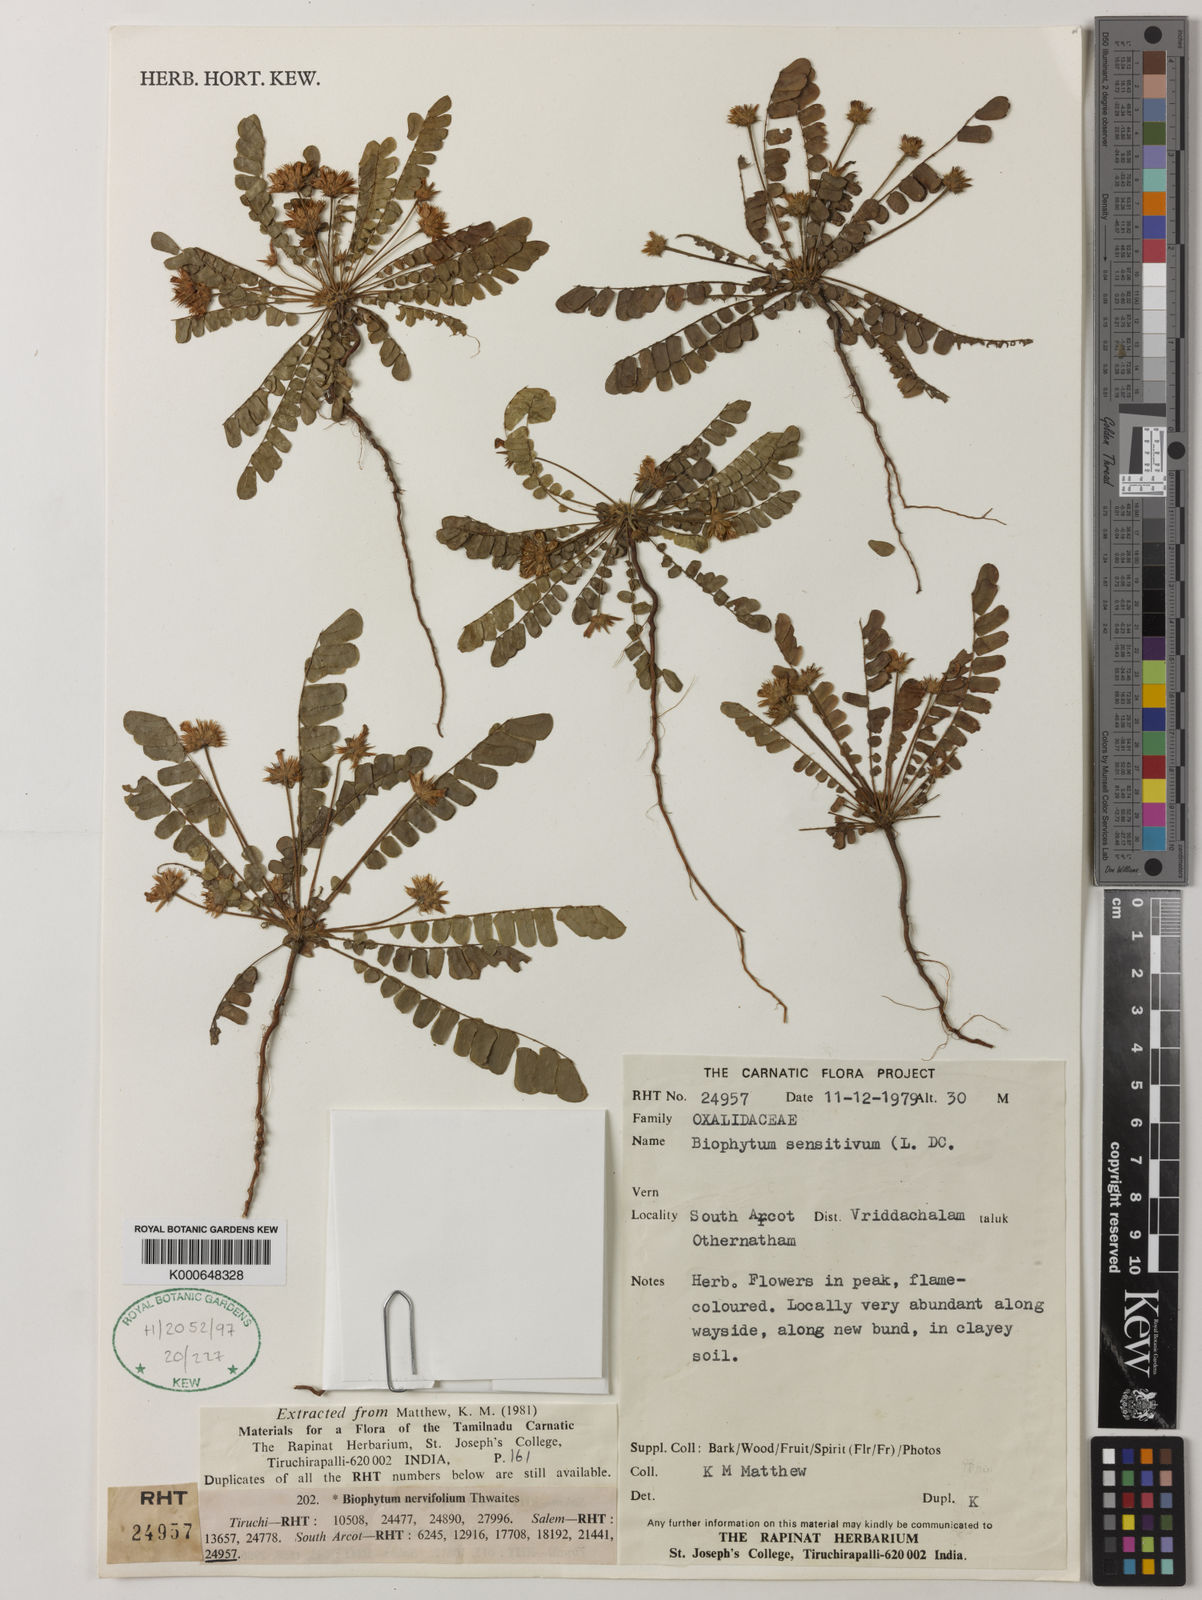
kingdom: Plantae
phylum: Tracheophyta
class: Magnoliopsida
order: Oxalidales
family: Oxalidaceae
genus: Biophytum
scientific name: Biophytum sensitivum
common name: Lifeplant
